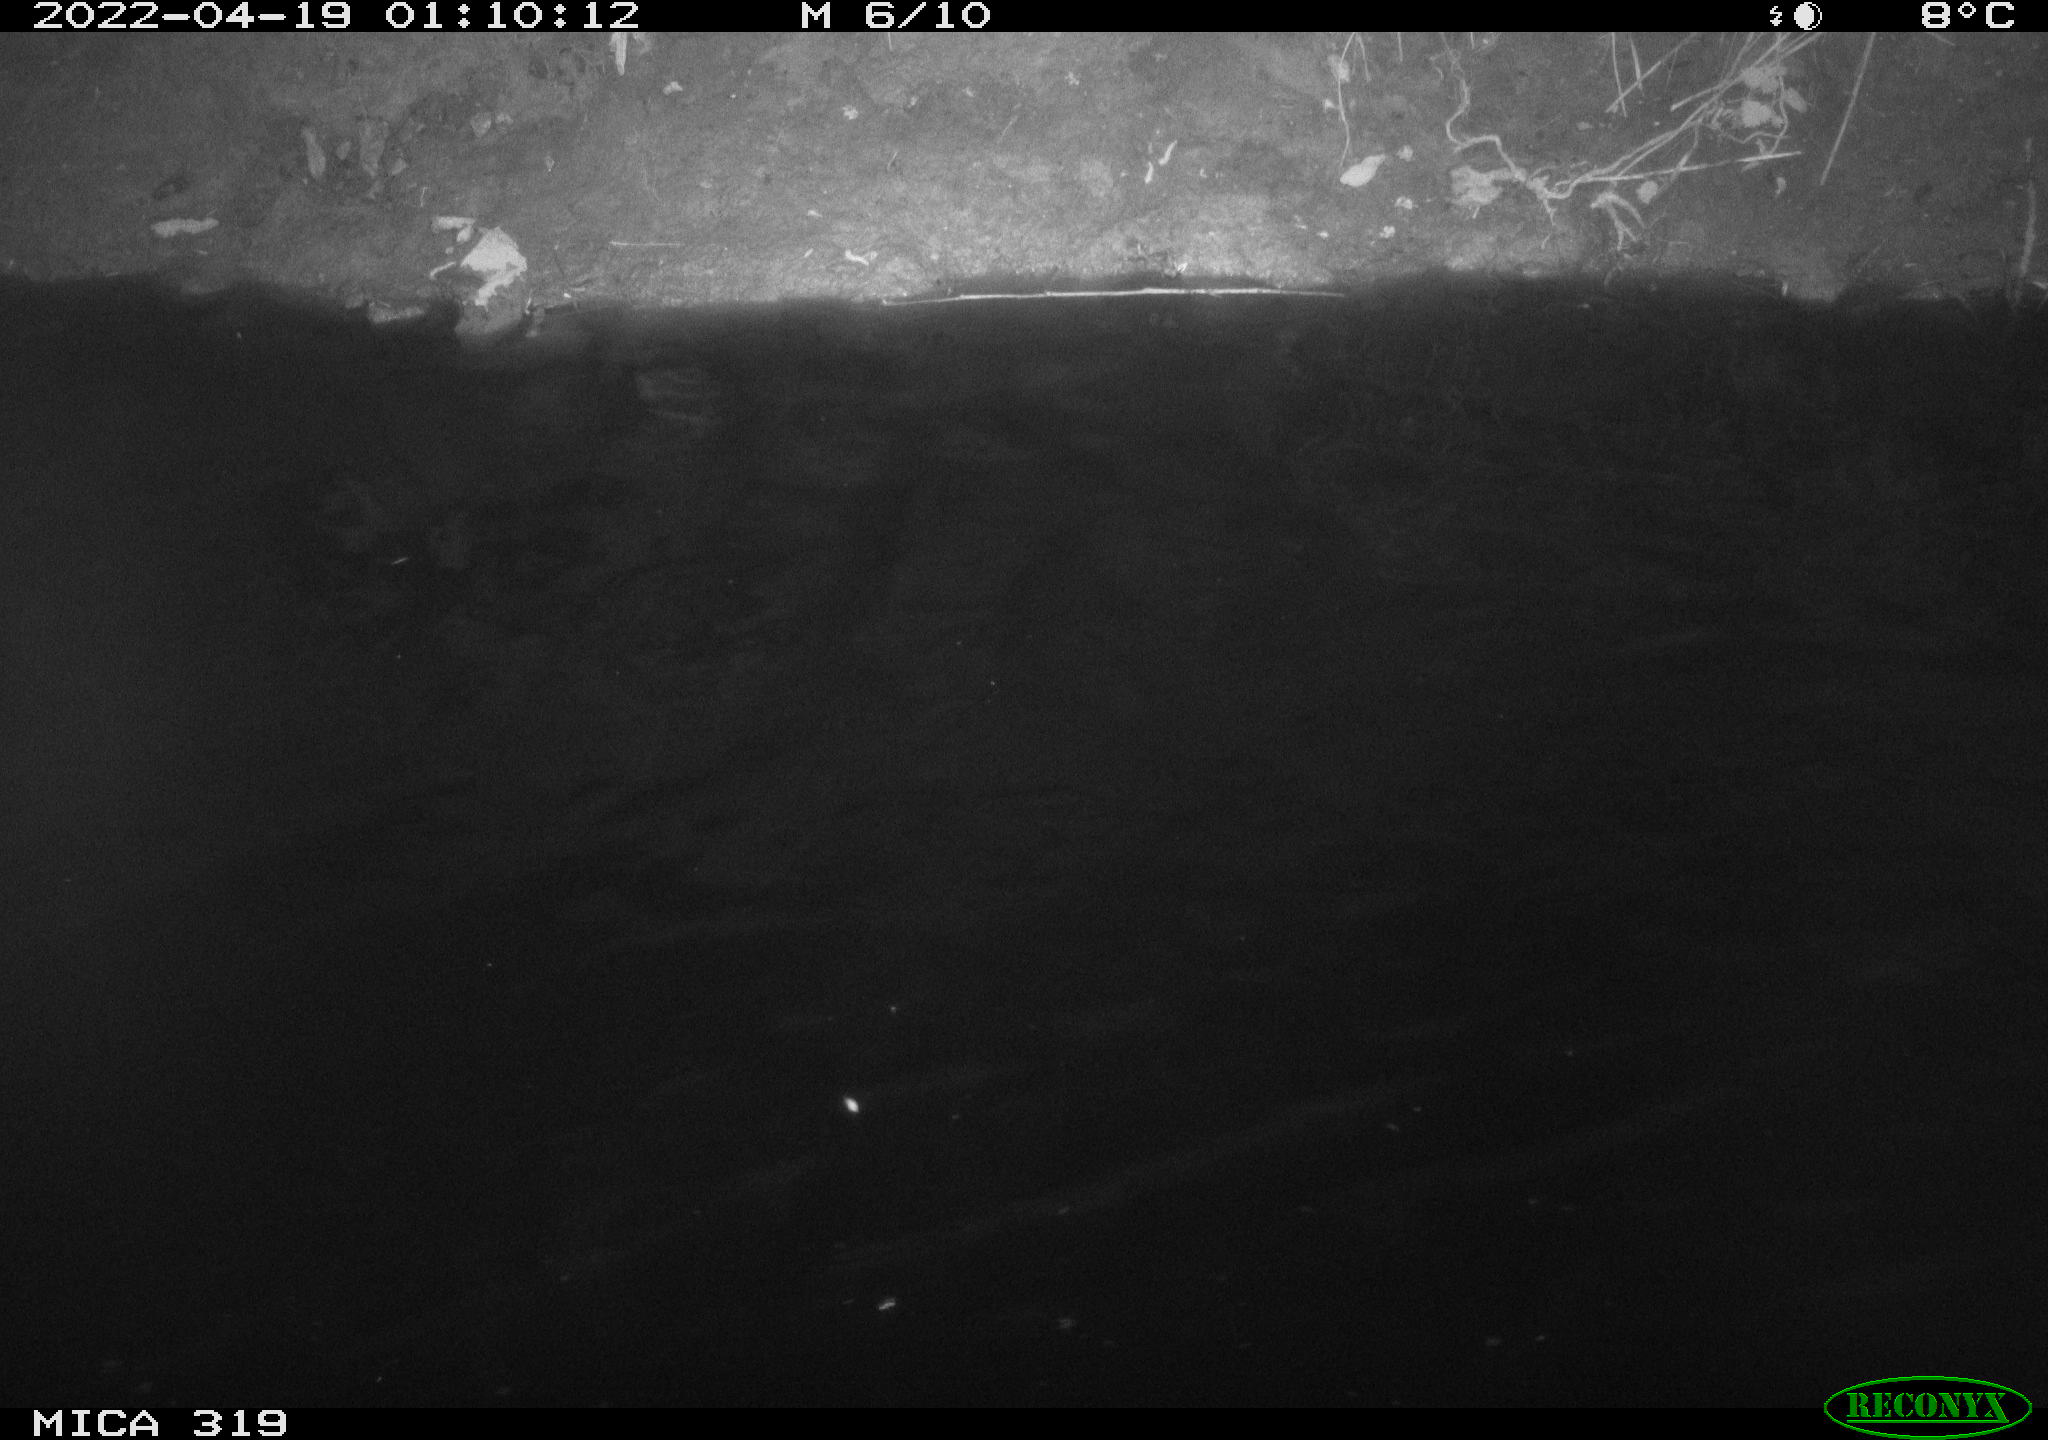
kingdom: Animalia
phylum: Chordata
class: Aves
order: Anseriformes
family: Anatidae
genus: Anas
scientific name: Anas platyrhynchos
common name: Mallard
